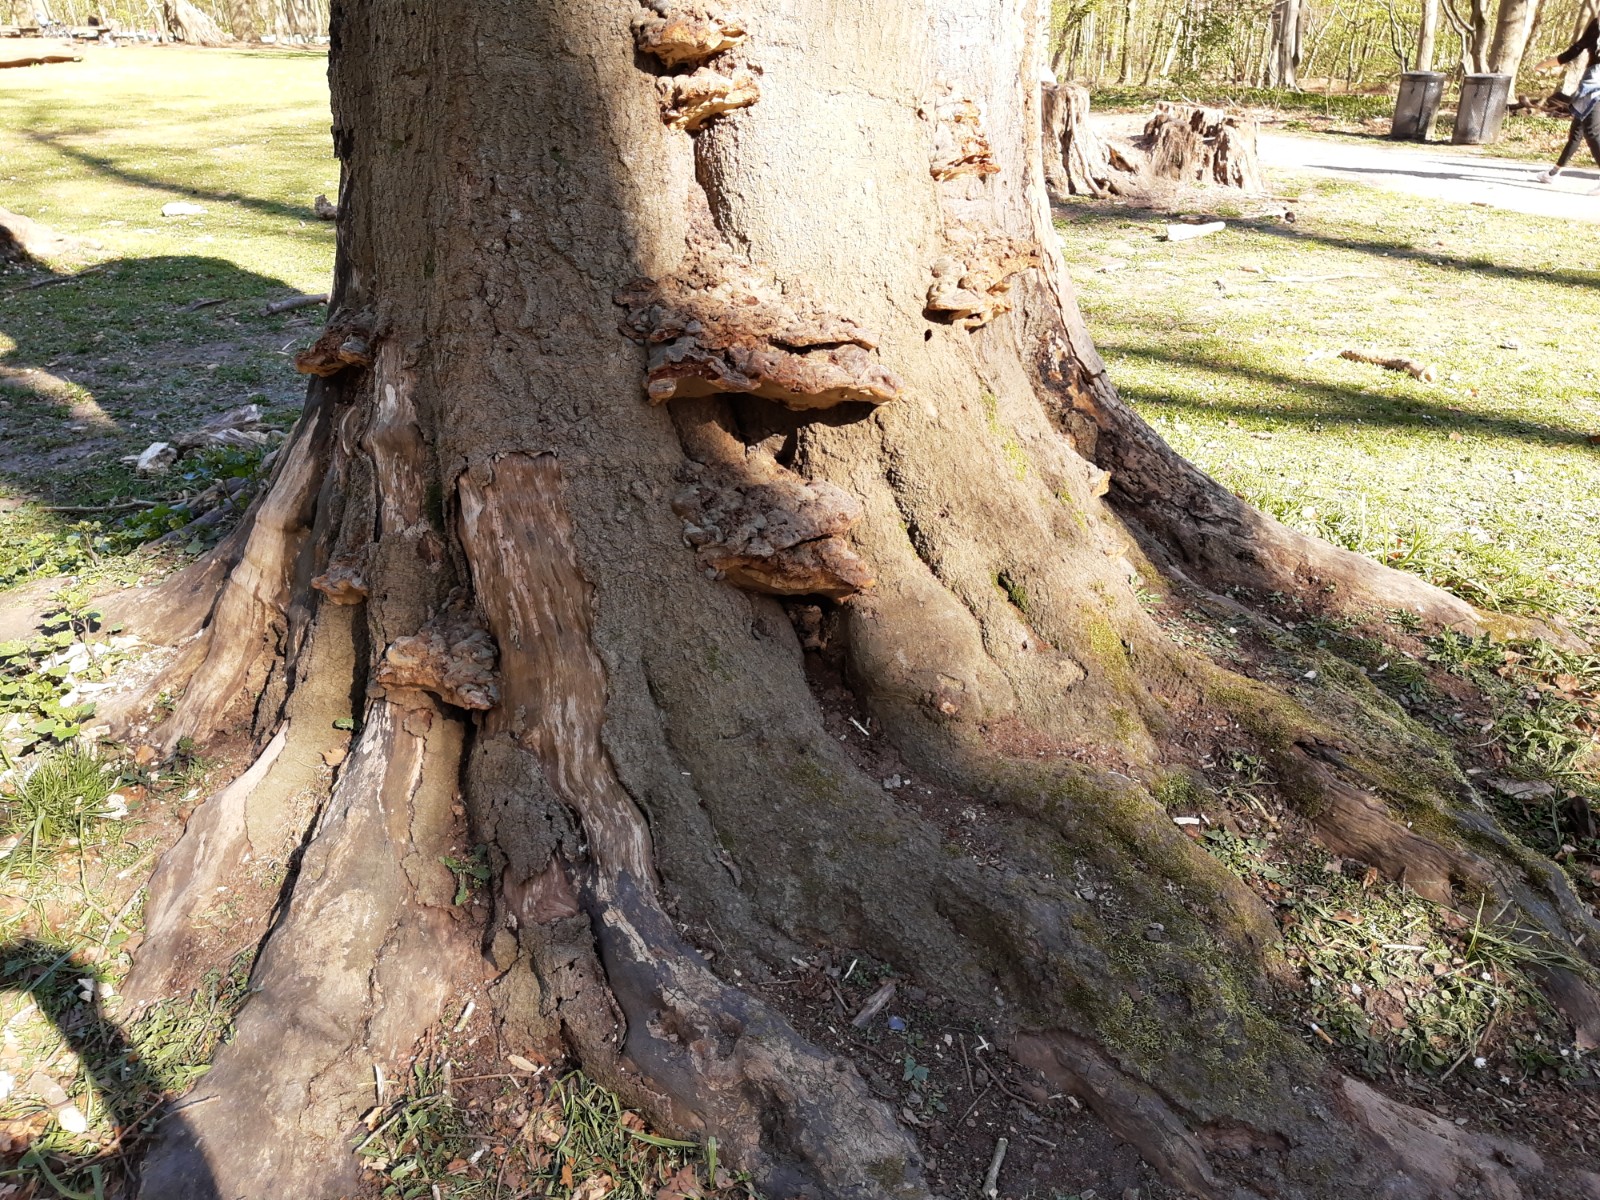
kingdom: Fungi
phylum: Basidiomycota
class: Agaricomycetes
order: Polyporales
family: Polyporaceae
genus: Ganoderma
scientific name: Ganoderma pfeifferi
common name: kobberrød lakporesvamp
